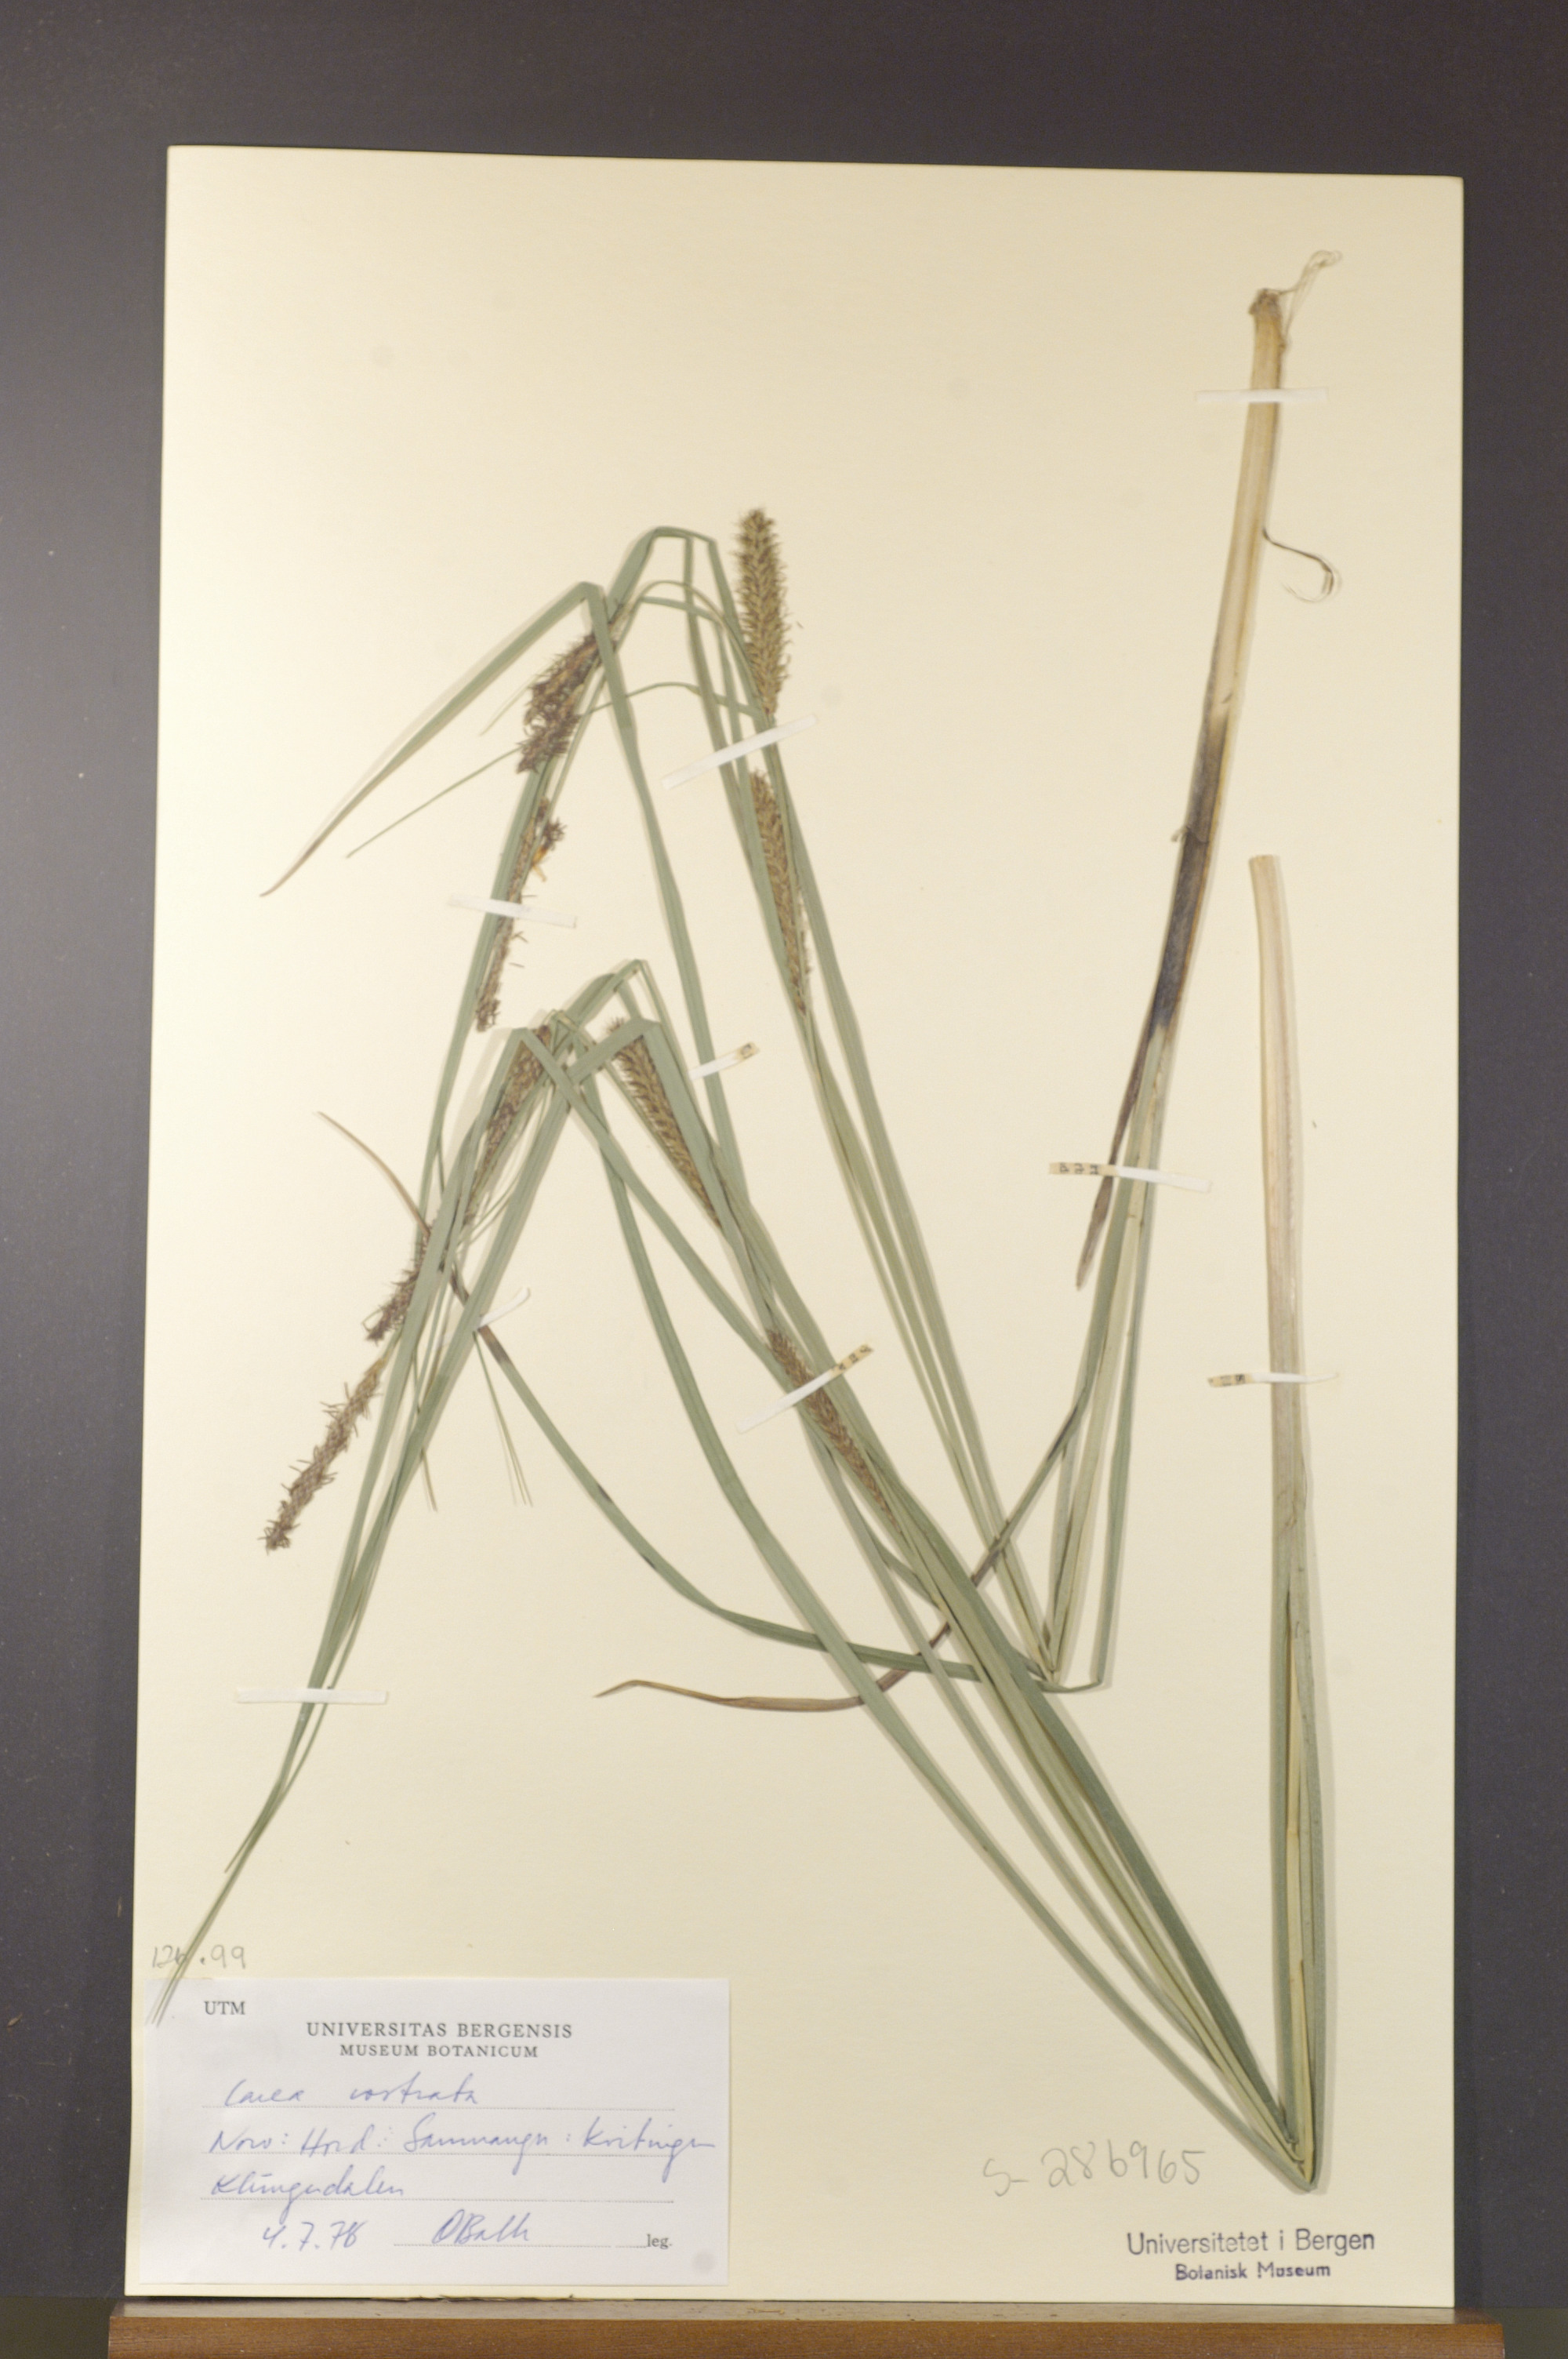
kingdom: Plantae
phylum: Tracheophyta
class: Liliopsida
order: Poales
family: Cyperaceae
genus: Carex
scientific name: Carex rostrata
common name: Bottle sedge
